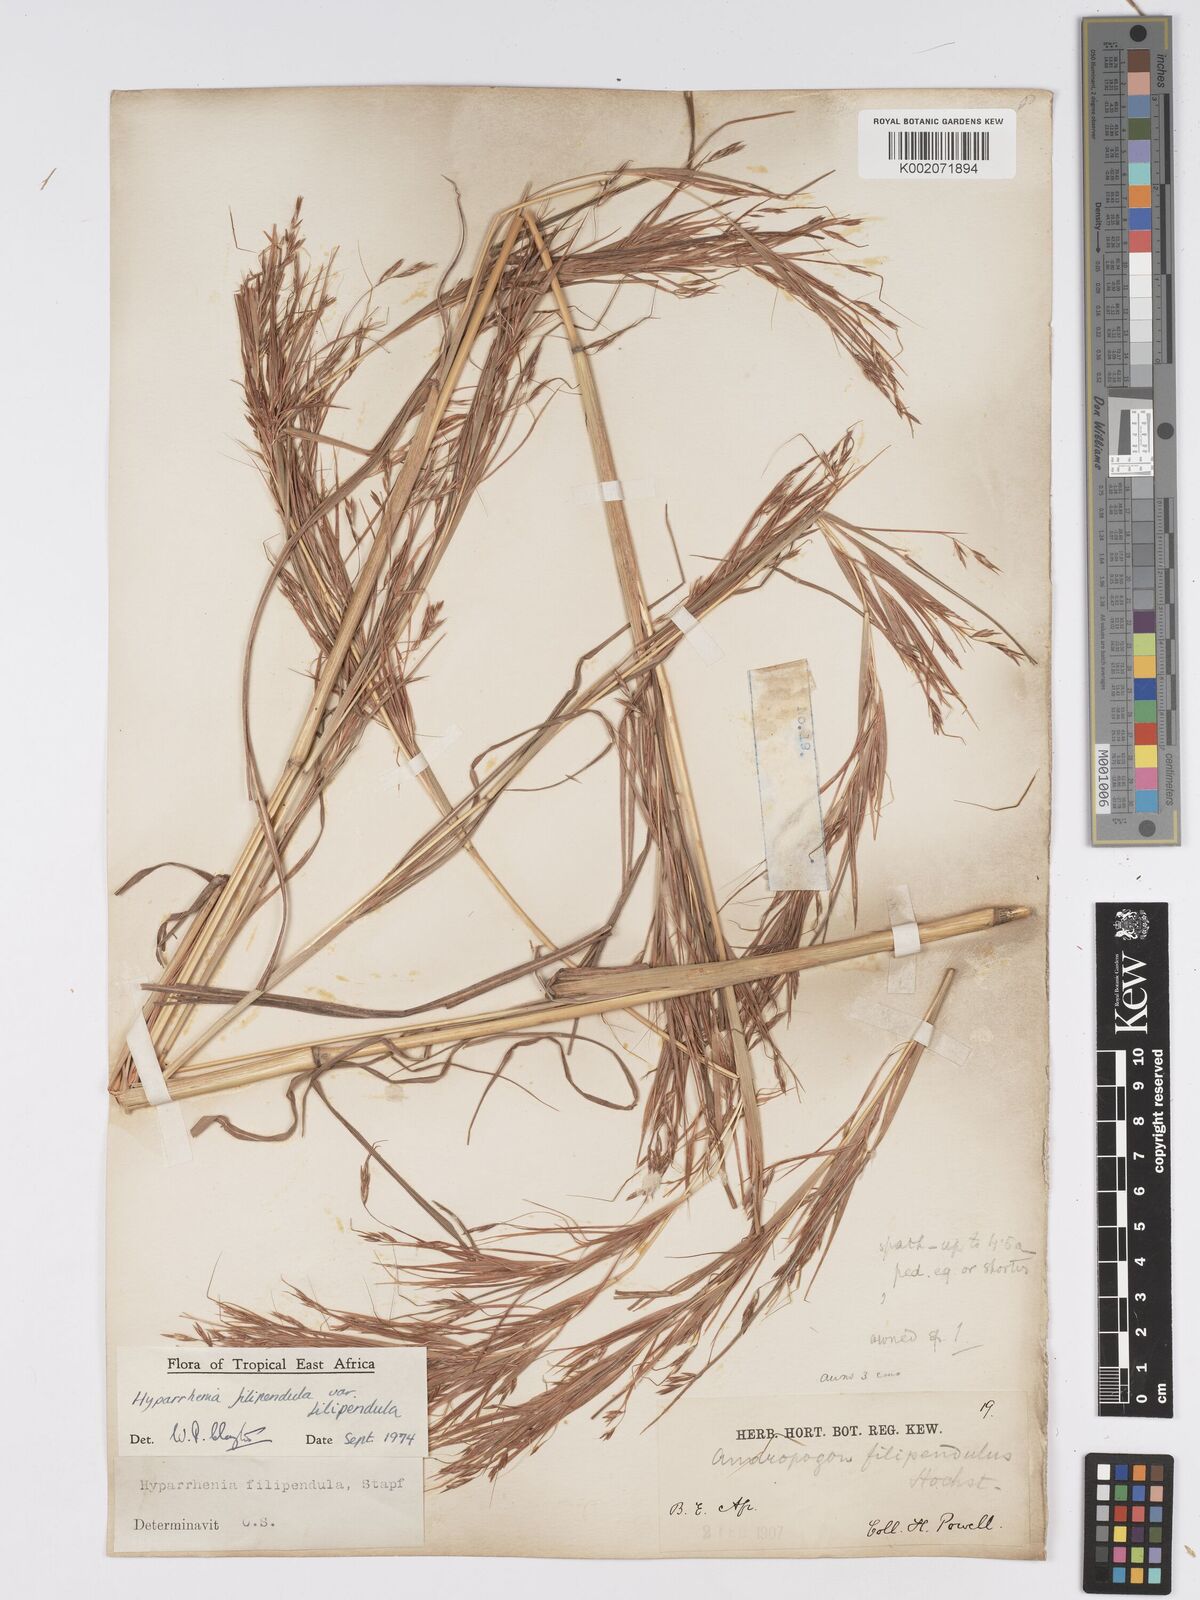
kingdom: Plantae
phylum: Tracheophyta
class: Liliopsida
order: Poales
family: Poaceae
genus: Hyparrhenia
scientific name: Hyparrhenia filipendula
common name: Tambookie grass
